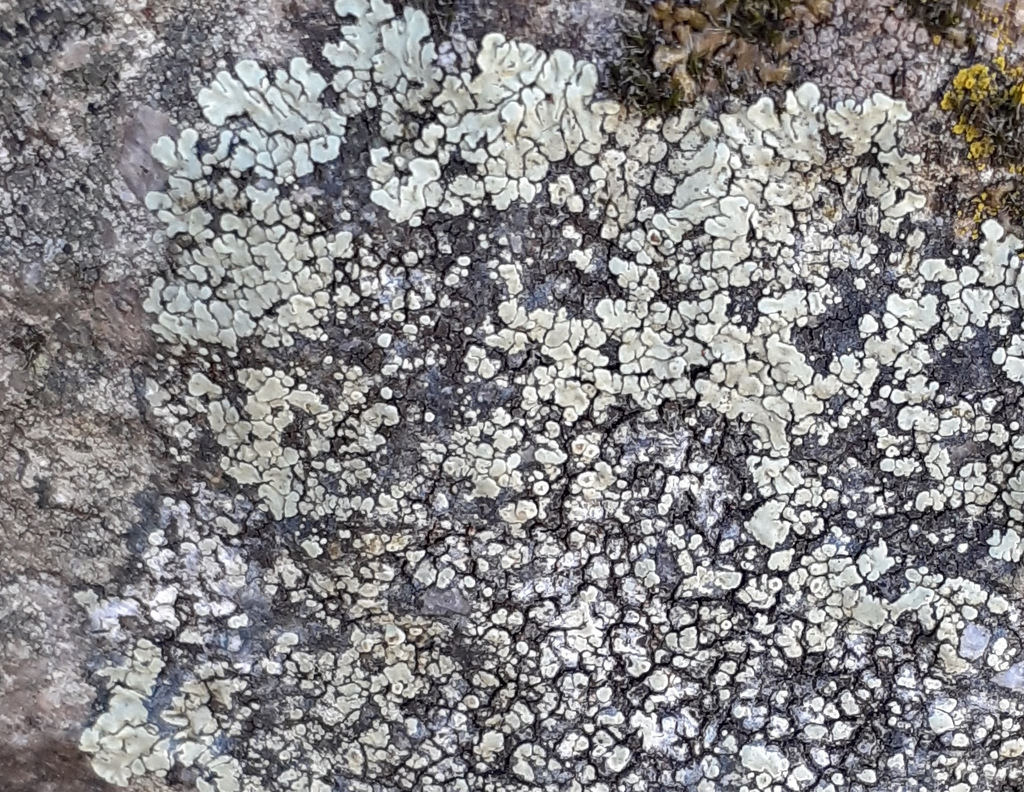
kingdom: Fungi
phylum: Ascomycota
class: Lecanoromycetes
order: Lecanorales
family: Lecanoraceae
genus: Protoparmeliopsis
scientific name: Protoparmeliopsis muralis
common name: randfliget kantskivelav
